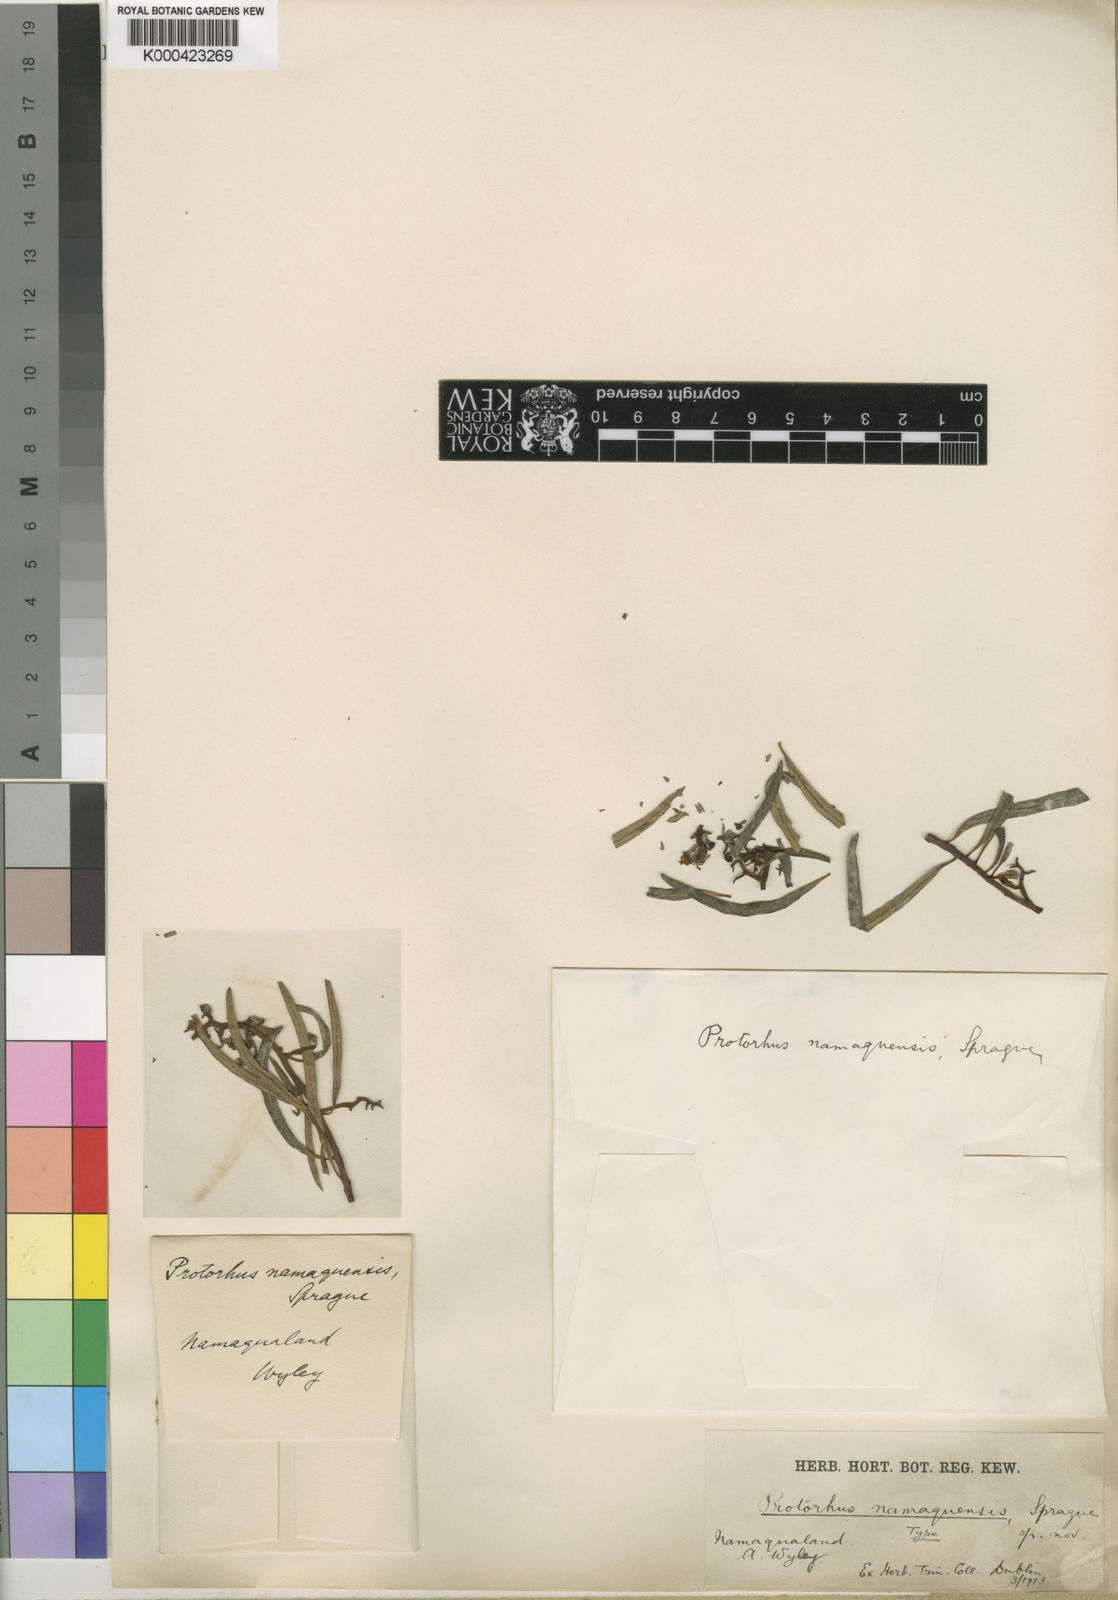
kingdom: Plantae
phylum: Tracheophyta
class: Magnoliopsida
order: Sapindales
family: Anacardiaceae
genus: Ozoroa
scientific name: Ozoroa namaquensis
